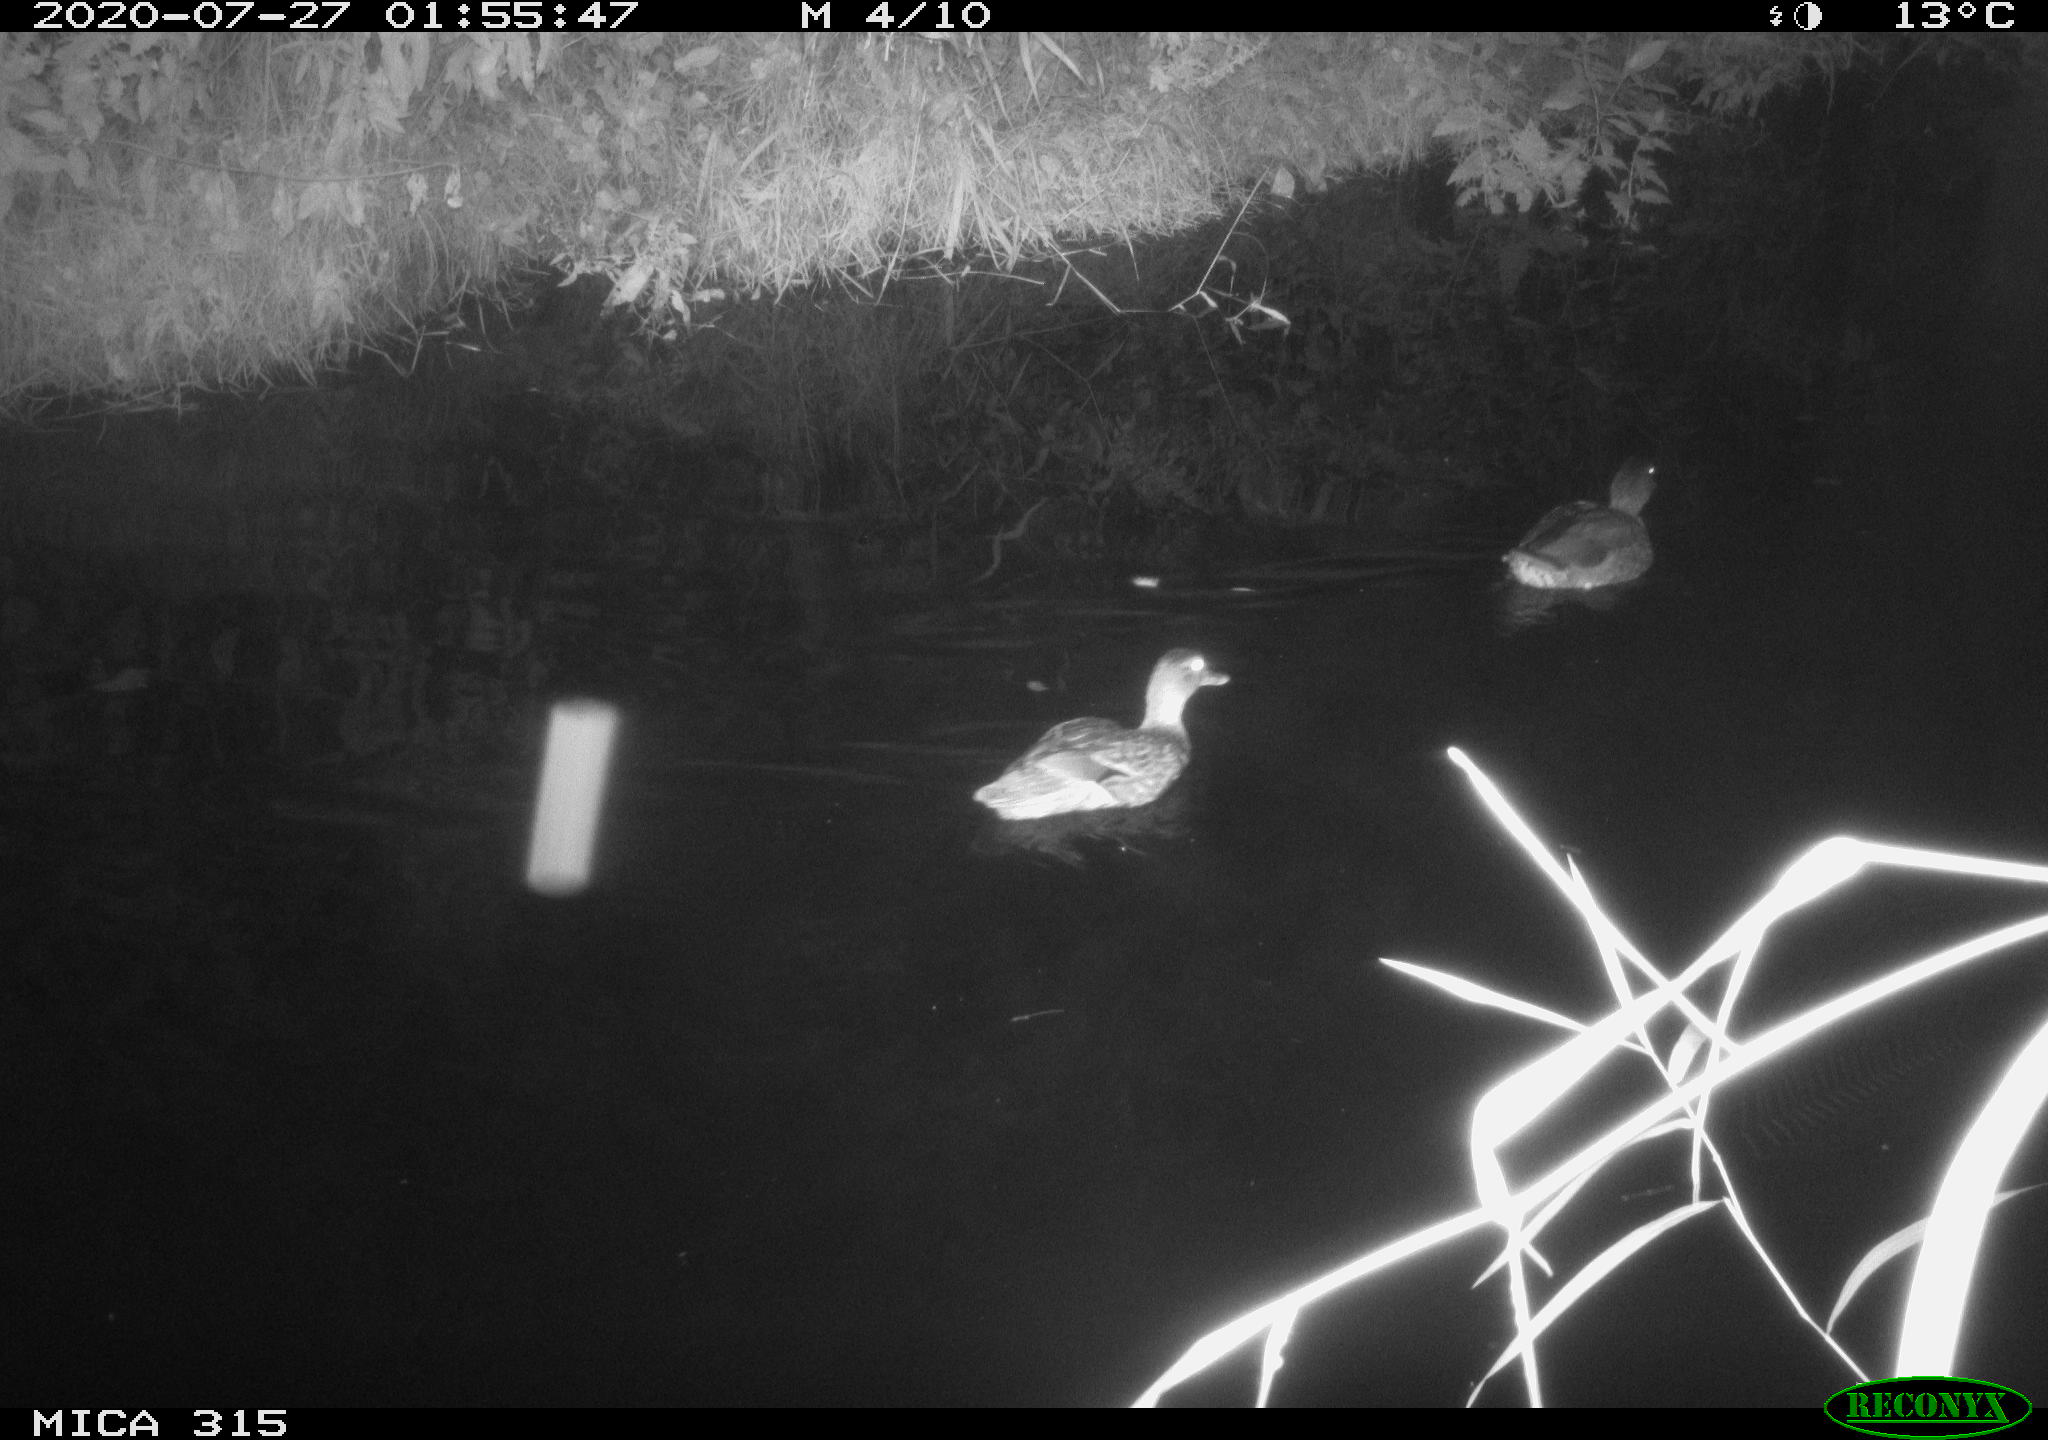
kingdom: Animalia
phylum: Chordata
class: Aves
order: Anseriformes
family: Anatidae
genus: Anas
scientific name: Anas platyrhynchos
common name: Mallard
